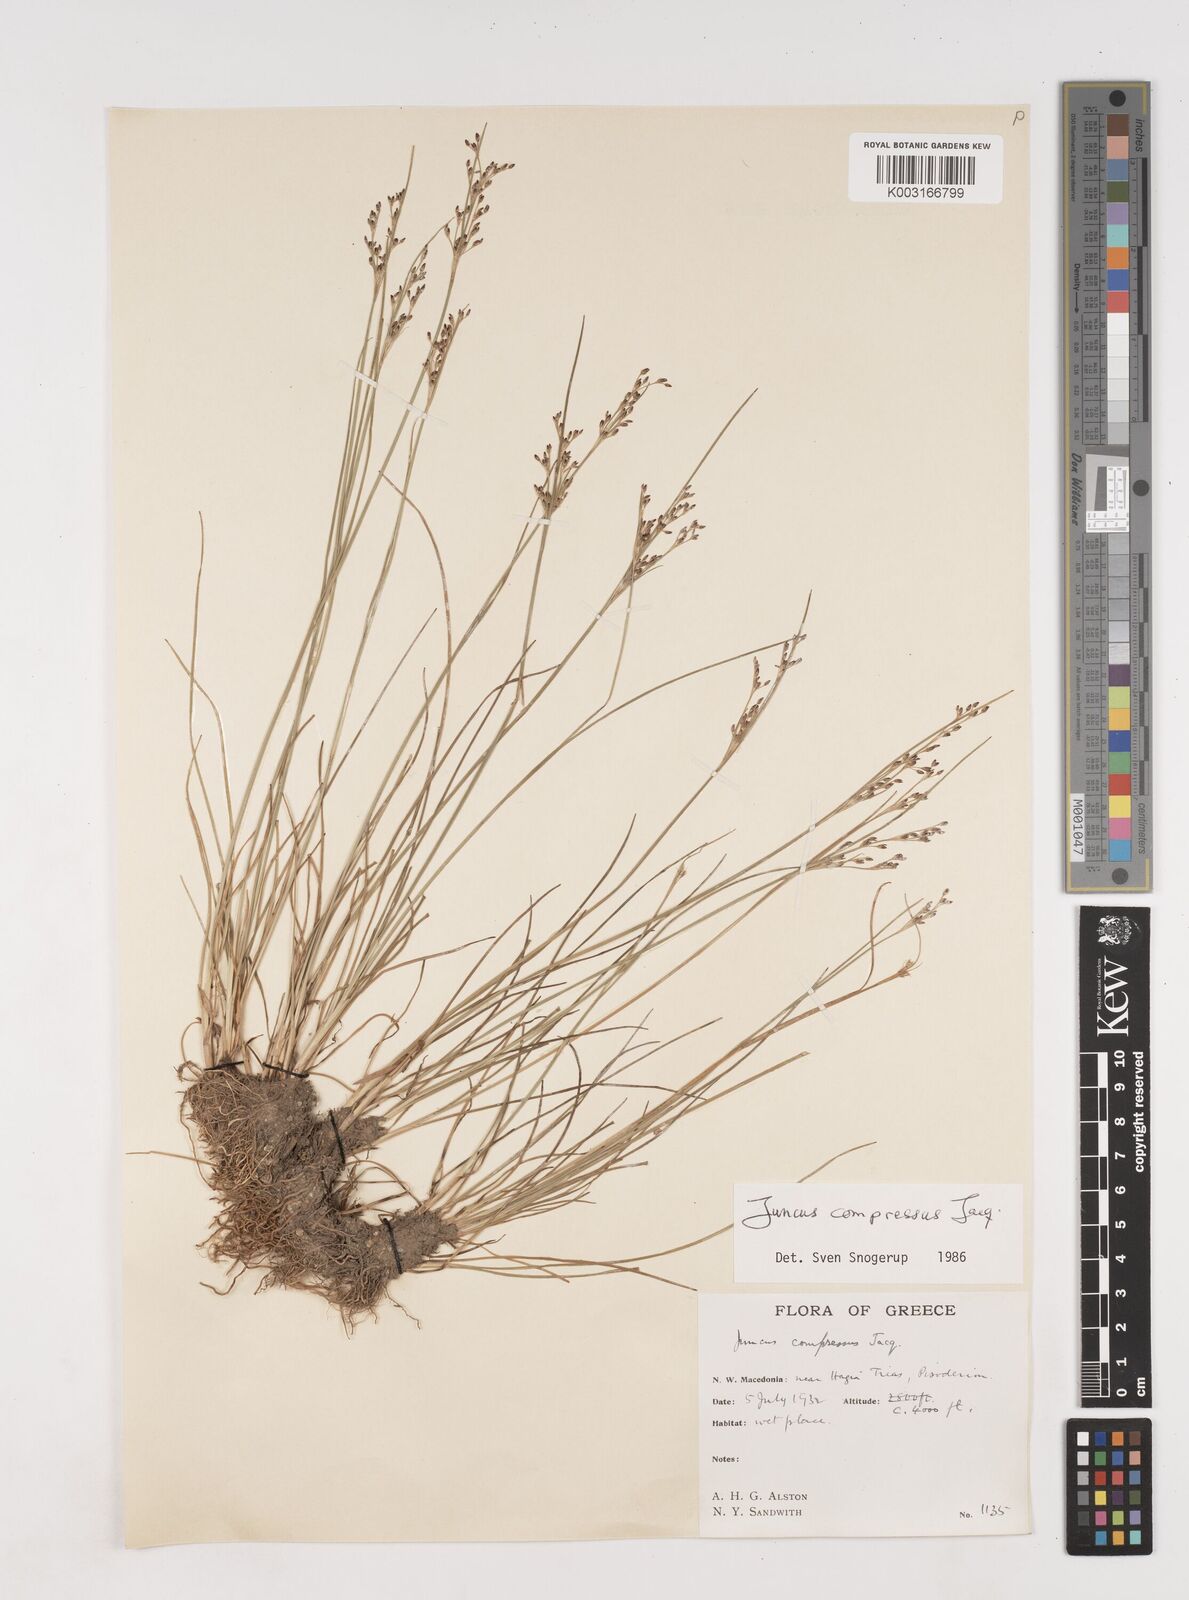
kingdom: Plantae
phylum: Tracheophyta
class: Liliopsida
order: Poales
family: Juncaceae
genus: Juncus
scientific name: Juncus compressus
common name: Round-fruited rush
